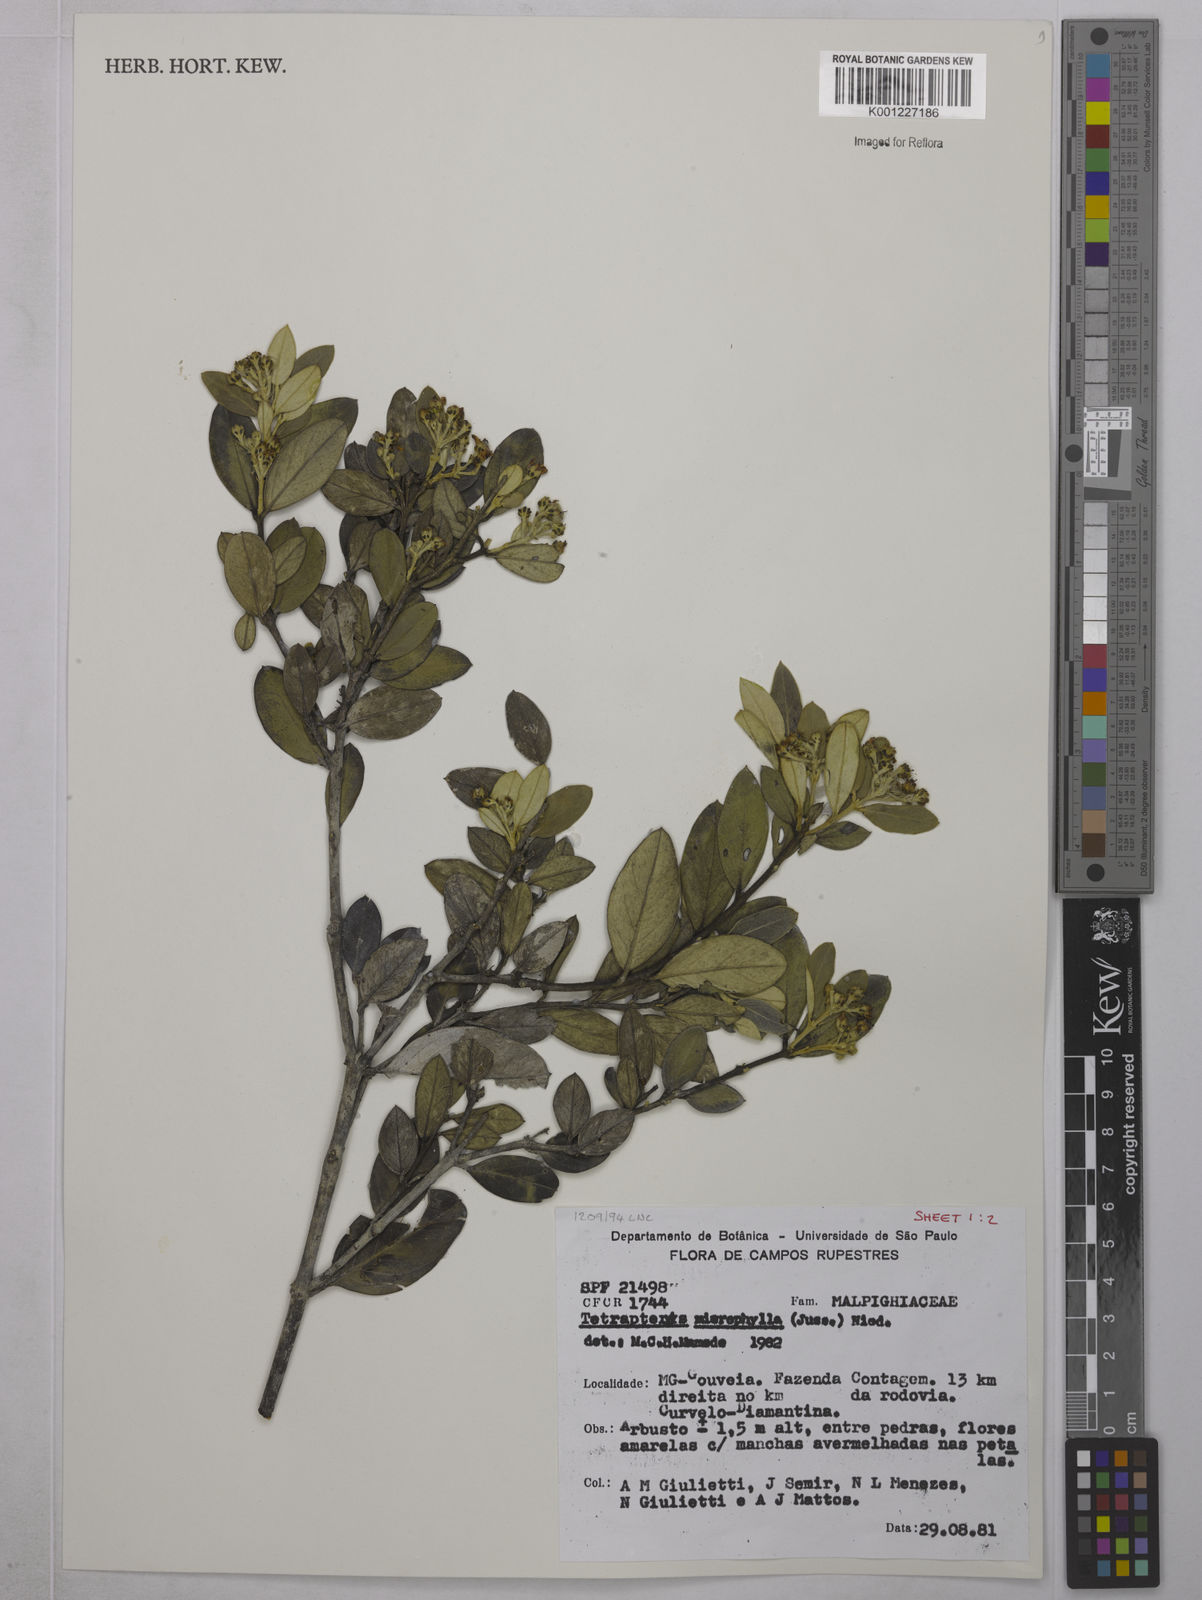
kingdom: Plantae
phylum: Tracheophyta
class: Magnoliopsida
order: Malpighiales
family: Malpighiaceae
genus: Glicophyllum
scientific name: Glicophyllum microphyllum
